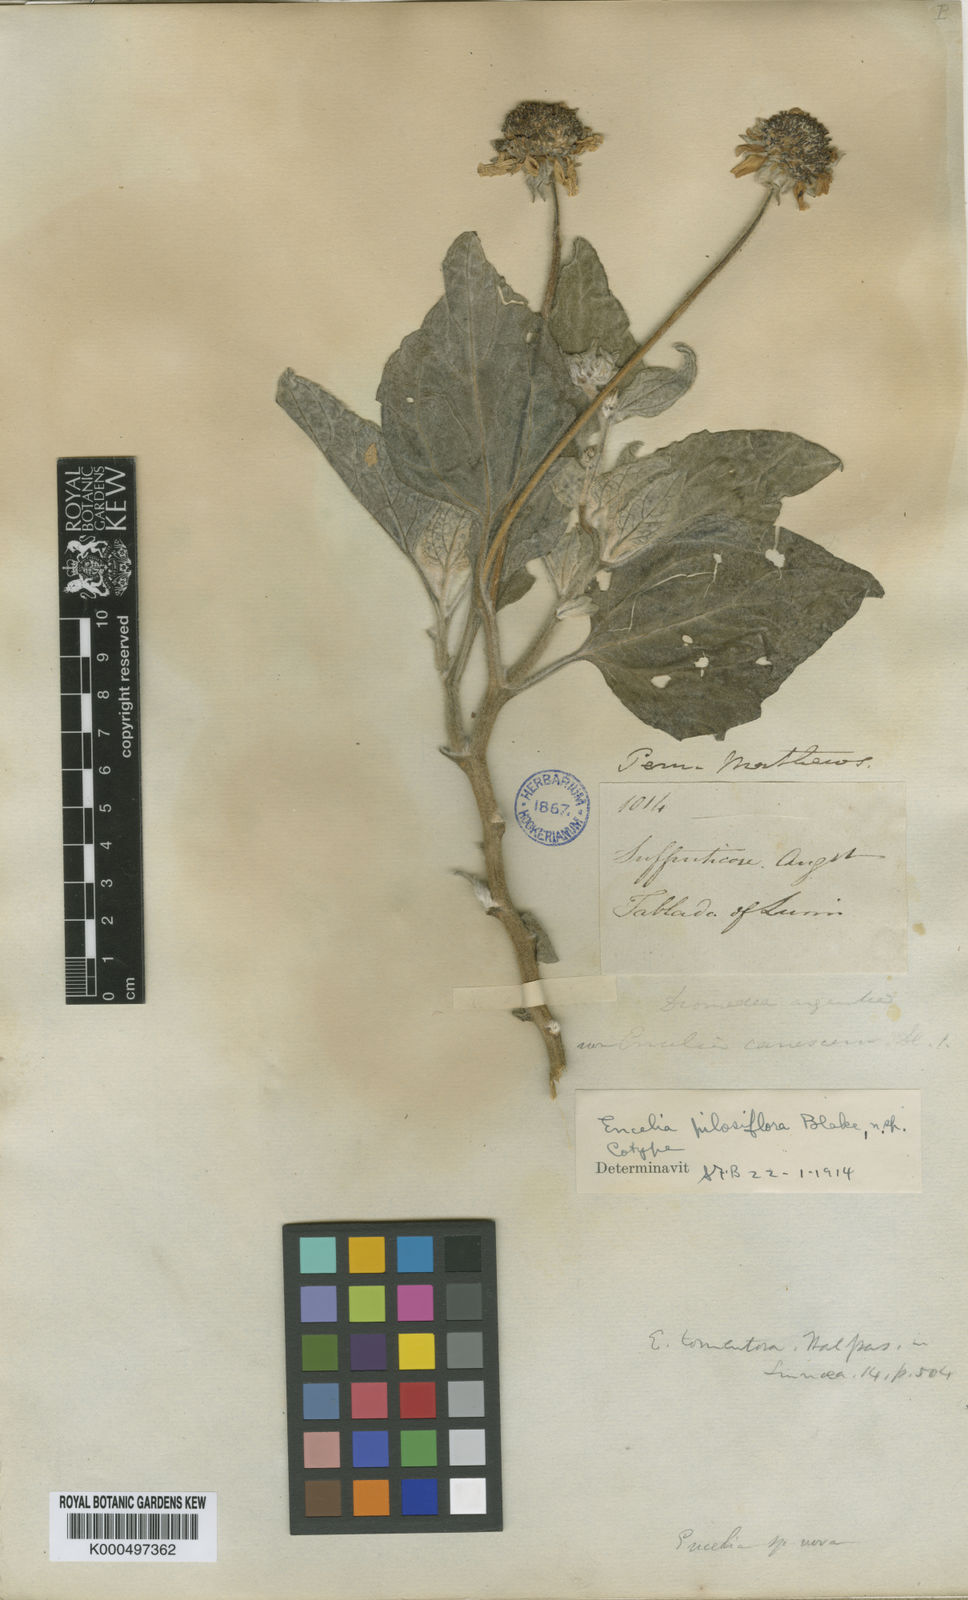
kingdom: Plantae
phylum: Tracheophyta
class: Magnoliopsida
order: Asterales
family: Asteraceae
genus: Encelia
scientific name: Encelia pilosiflora
